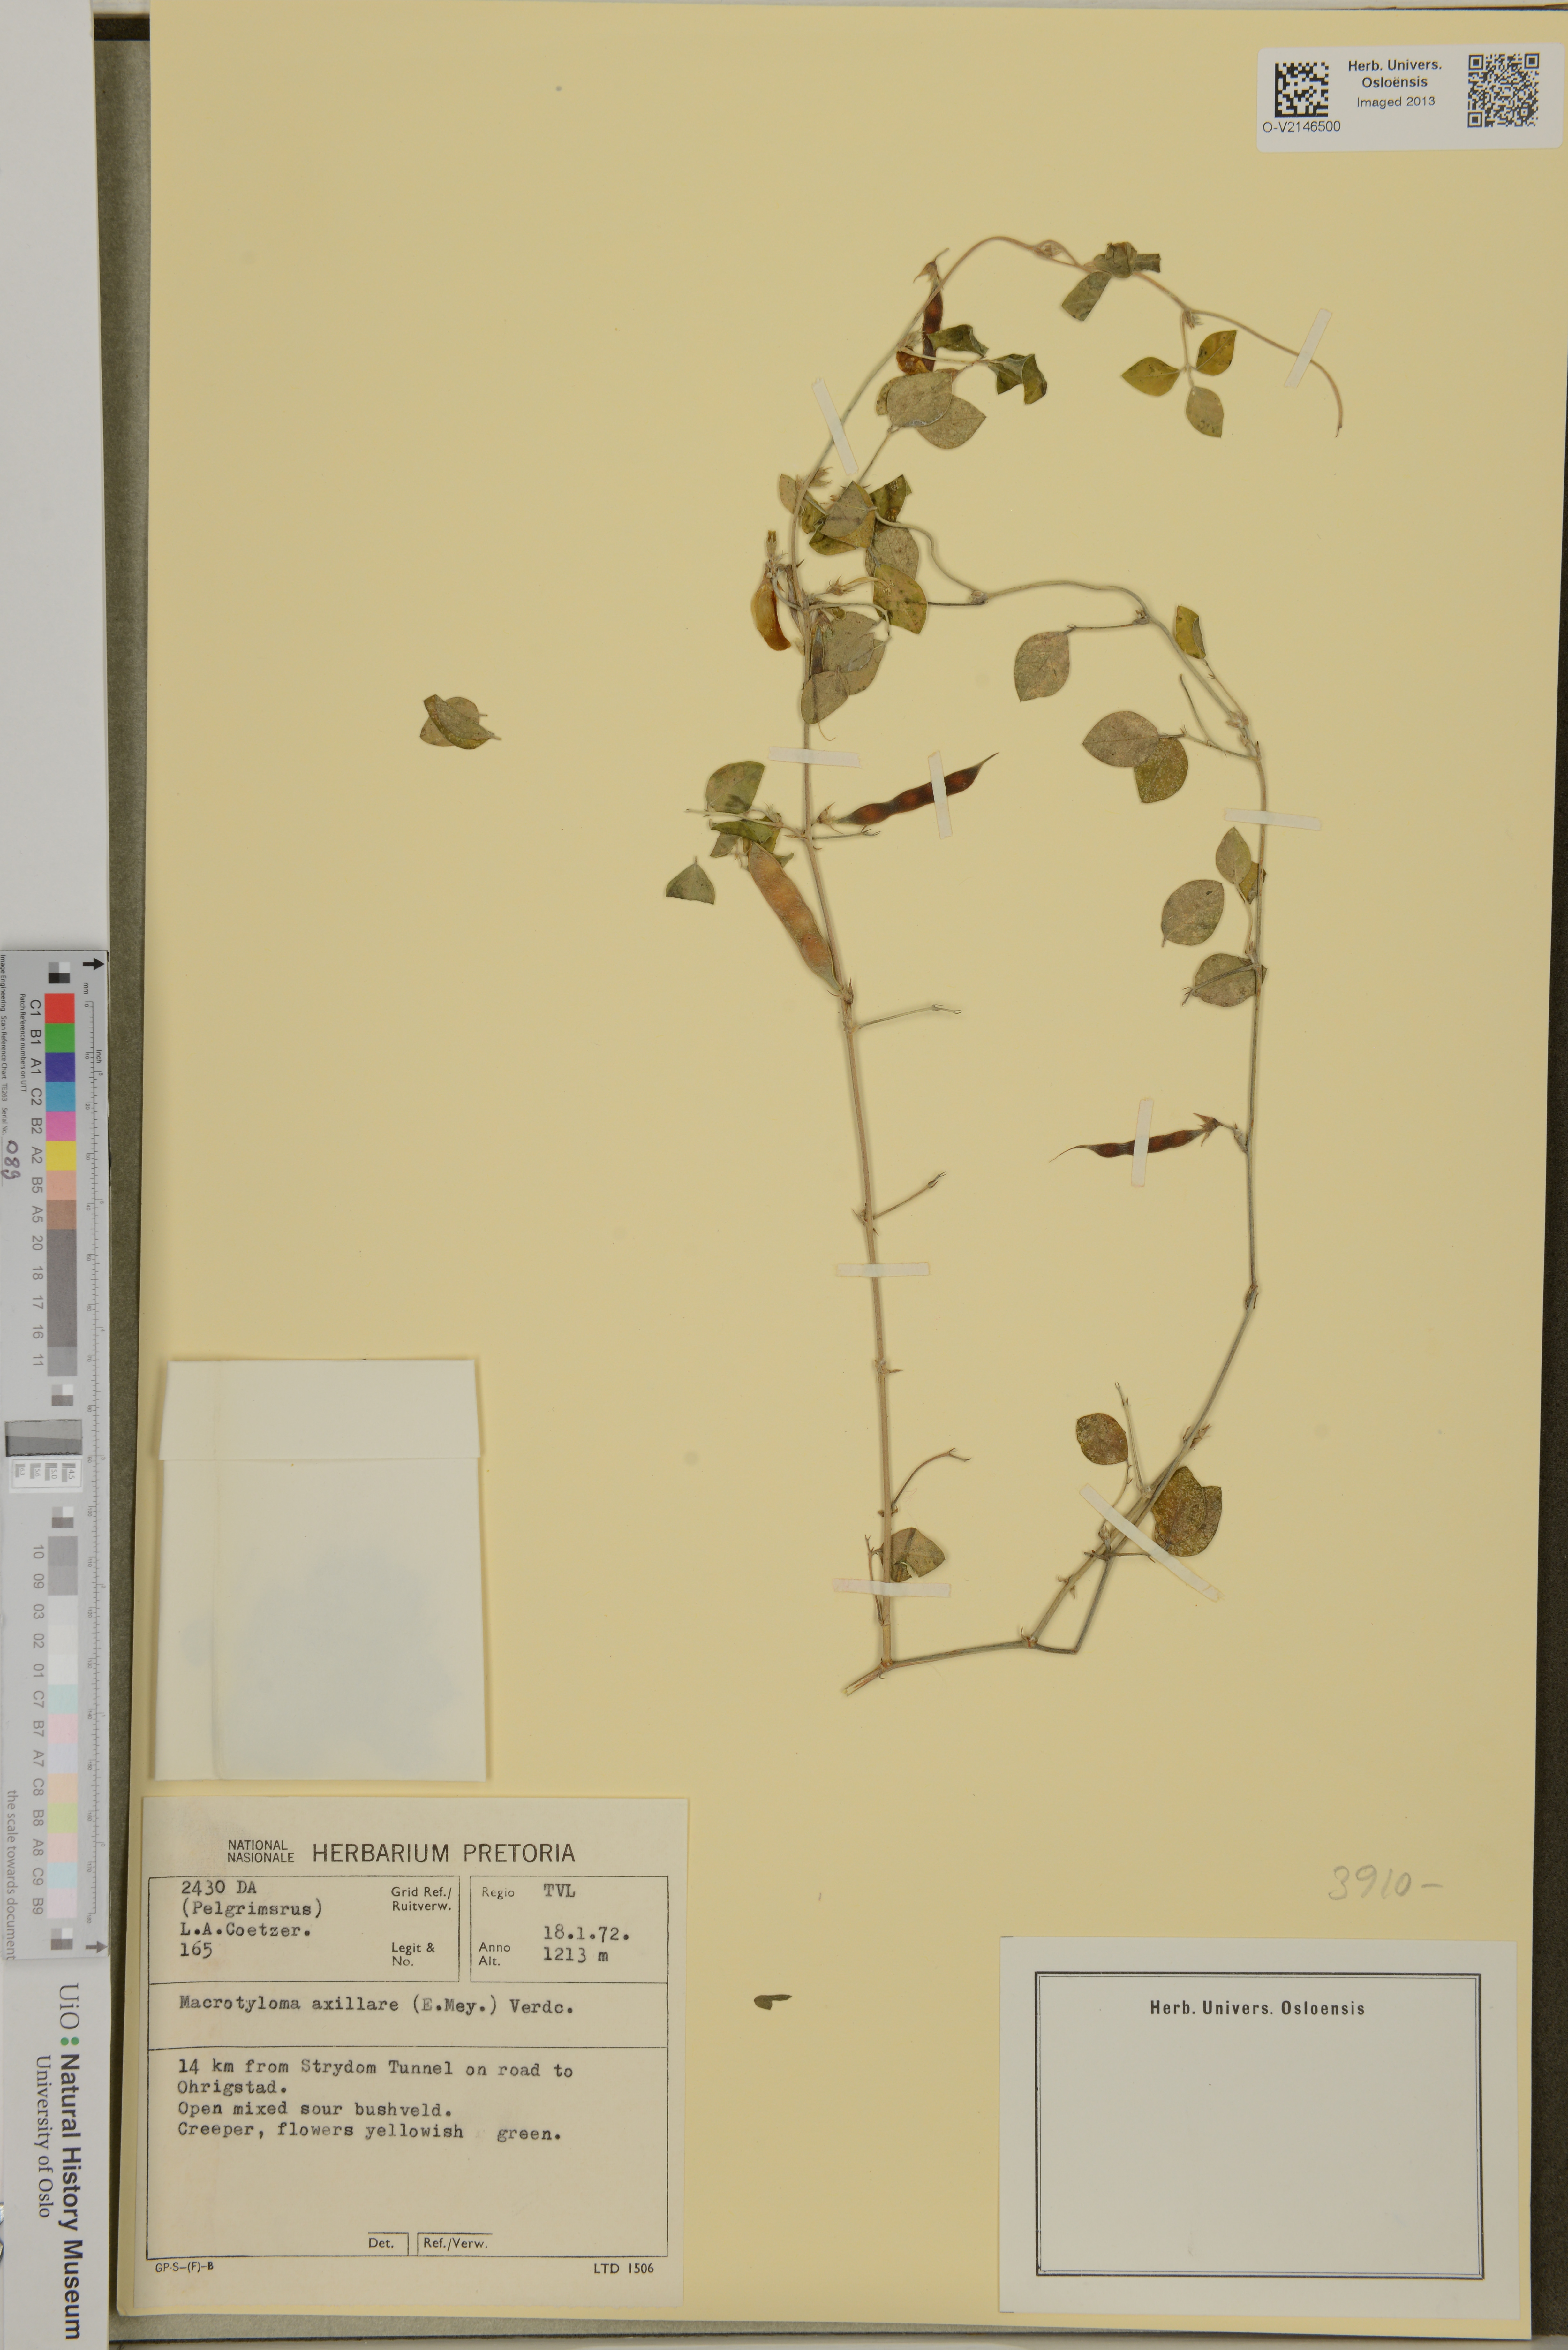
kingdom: Plantae
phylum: Tracheophyta
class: Magnoliopsida
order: Fabales
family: Fabaceae
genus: Macrotyloma
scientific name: Macrotyloma axillare
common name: Perennial horsegram
